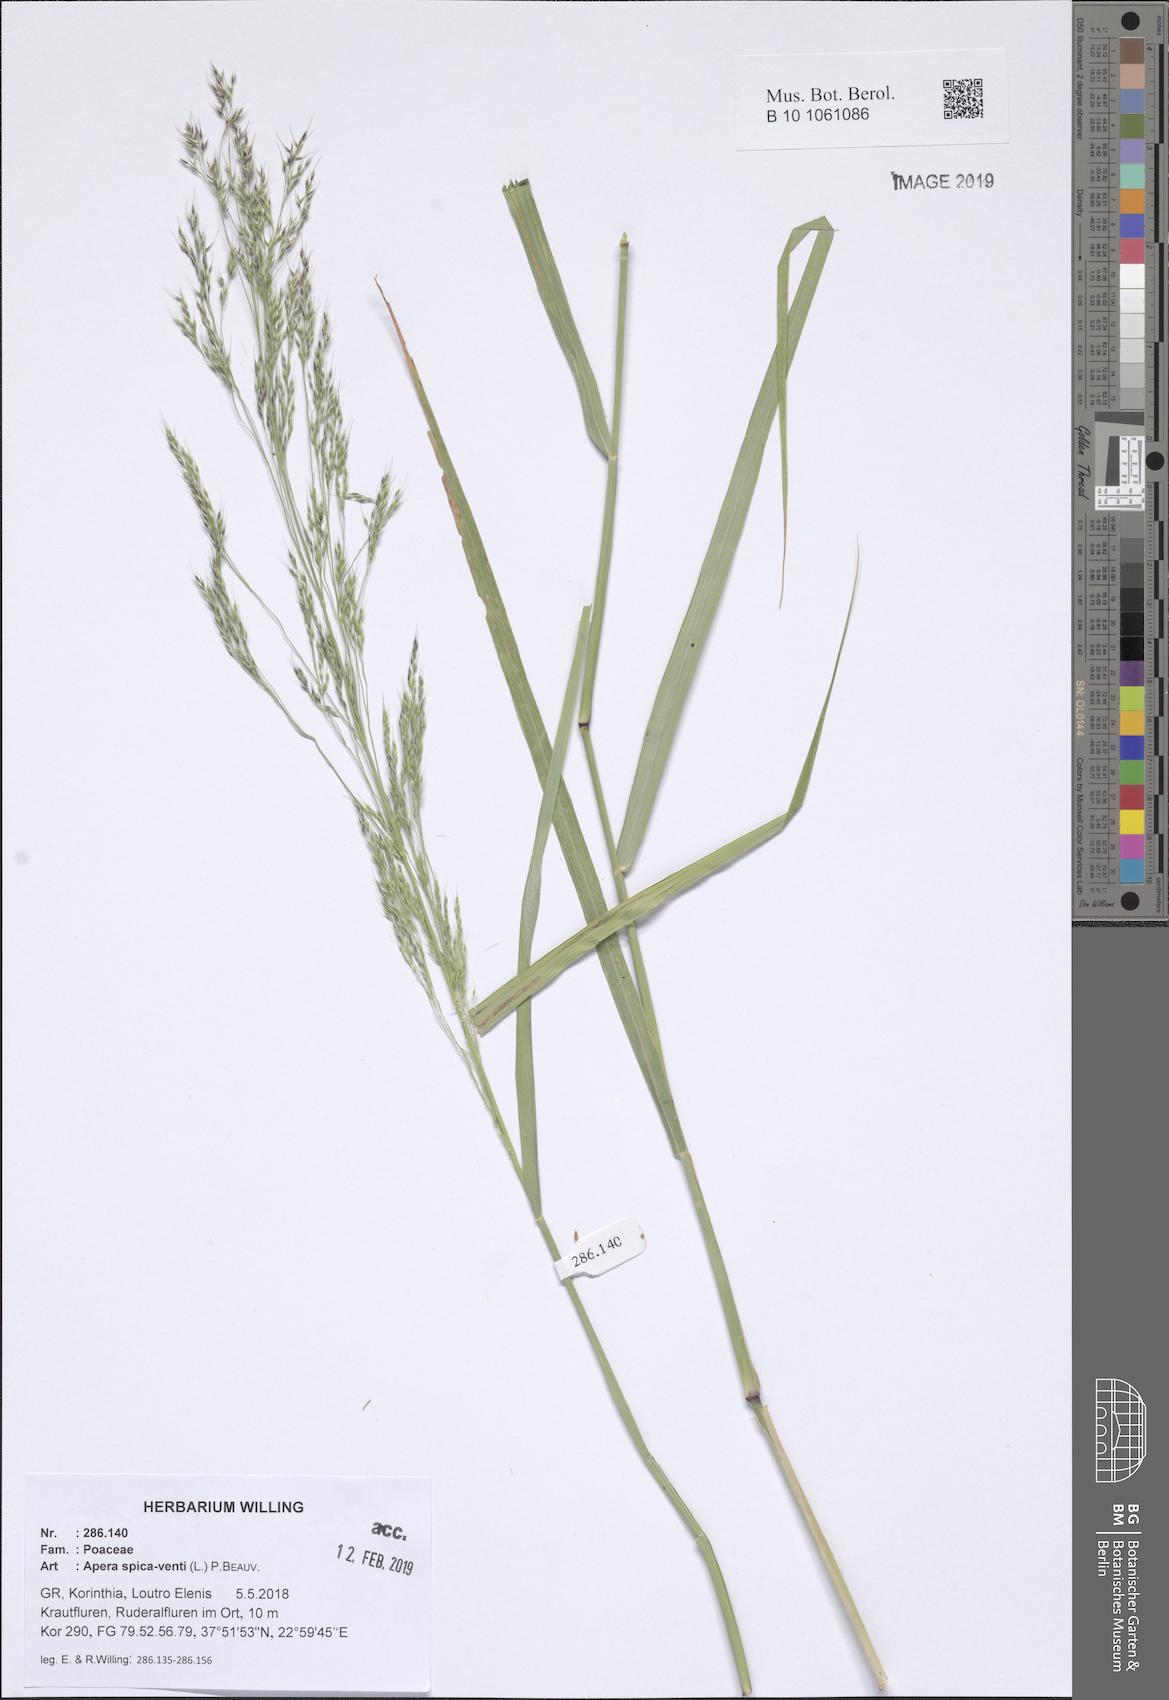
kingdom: Plantae
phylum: Tracheophyta
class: Liliopsida
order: Poales
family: Poaceae
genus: Apera
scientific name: Apera spica-venti
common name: Loose silky-bent
